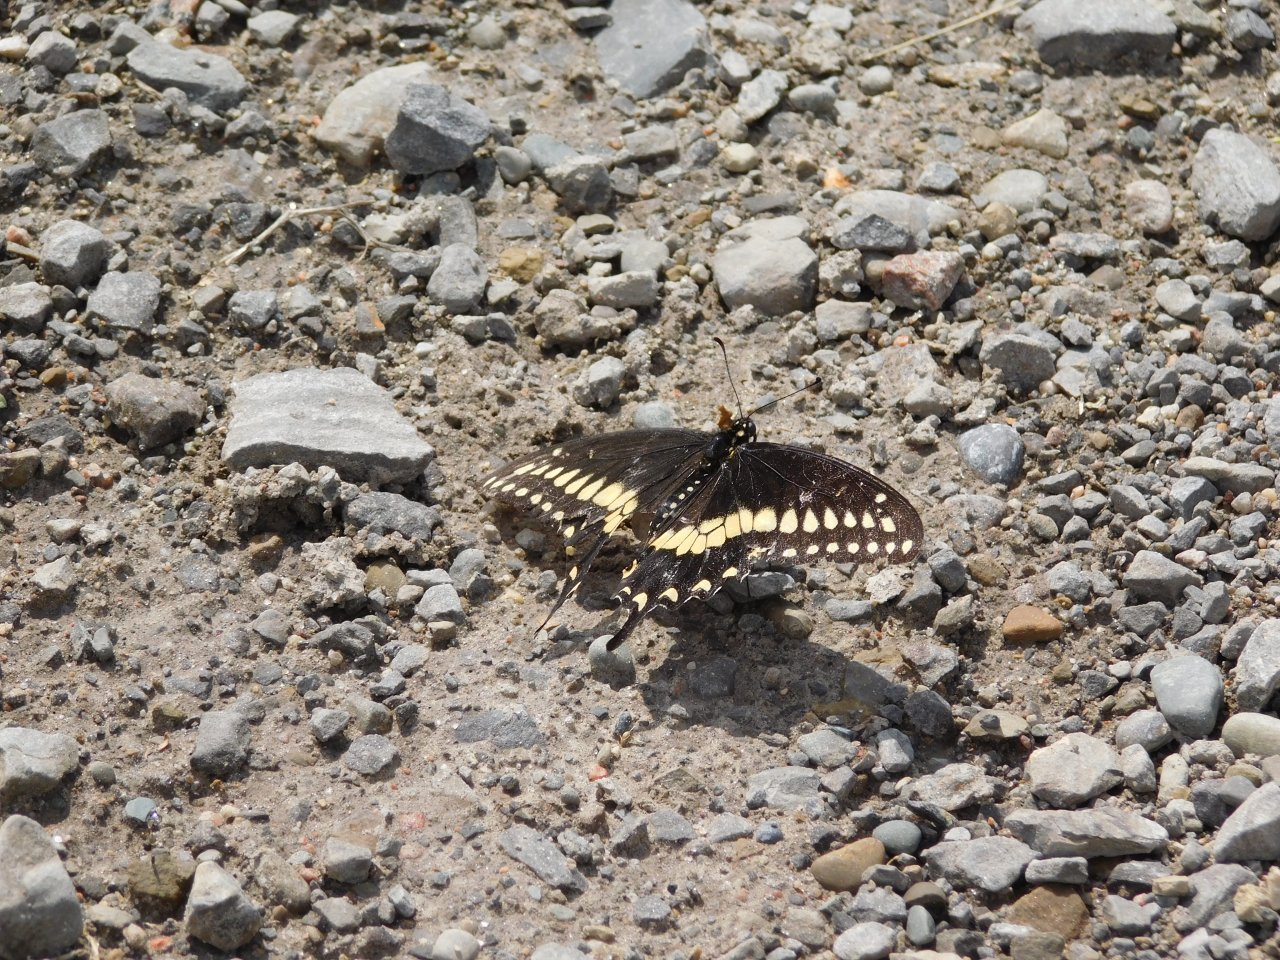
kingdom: Animalia
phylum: Arthropoda
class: Insecta
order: Lepidoptera
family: Papilionidae
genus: Papilio
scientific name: Papilio polyxenes
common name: Black Swallowtail
